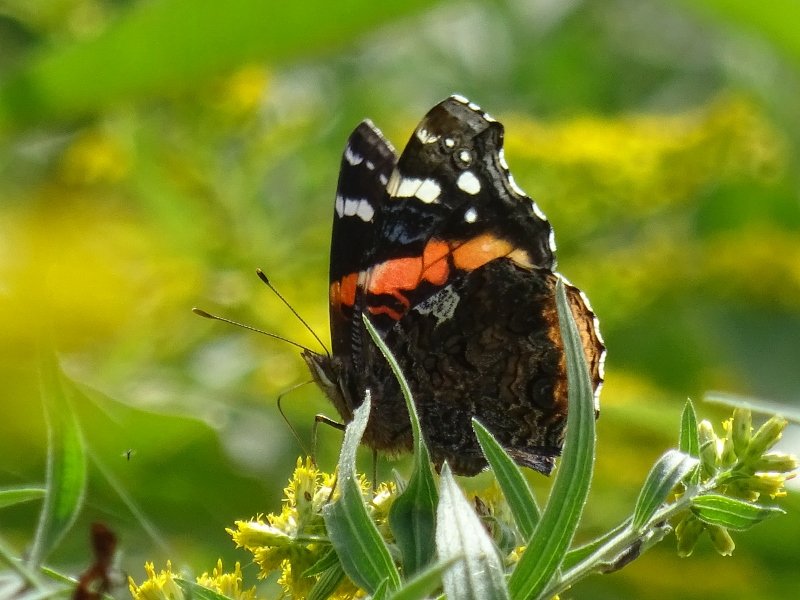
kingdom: Animalia
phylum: Arthropoda
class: Insecta
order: Lepidoptera
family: Nymphalidae
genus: Vanessa
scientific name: Vanessa atalanta
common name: Red Admiral
